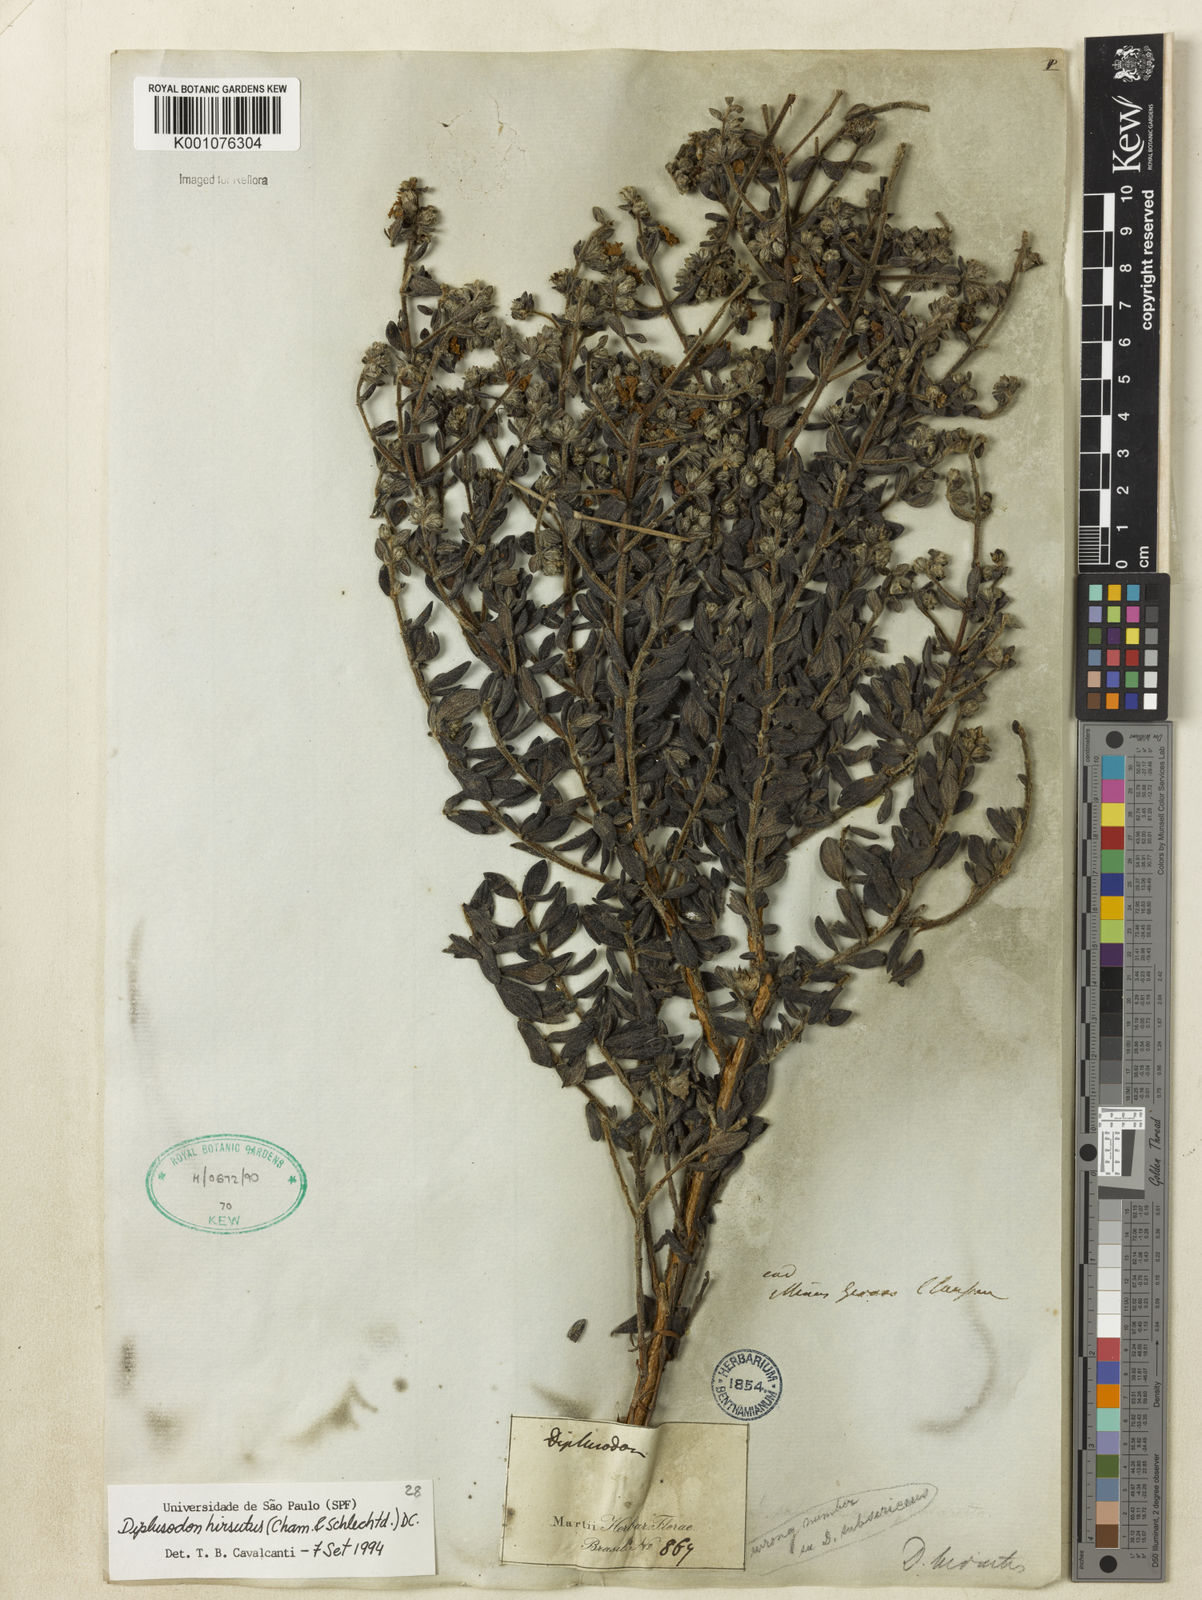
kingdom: Plantae
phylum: Tracheophyta
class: Magnoliopsida
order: Myrtales
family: Lythraceae
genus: Diplusodon
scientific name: Diplusodon hirsutus
